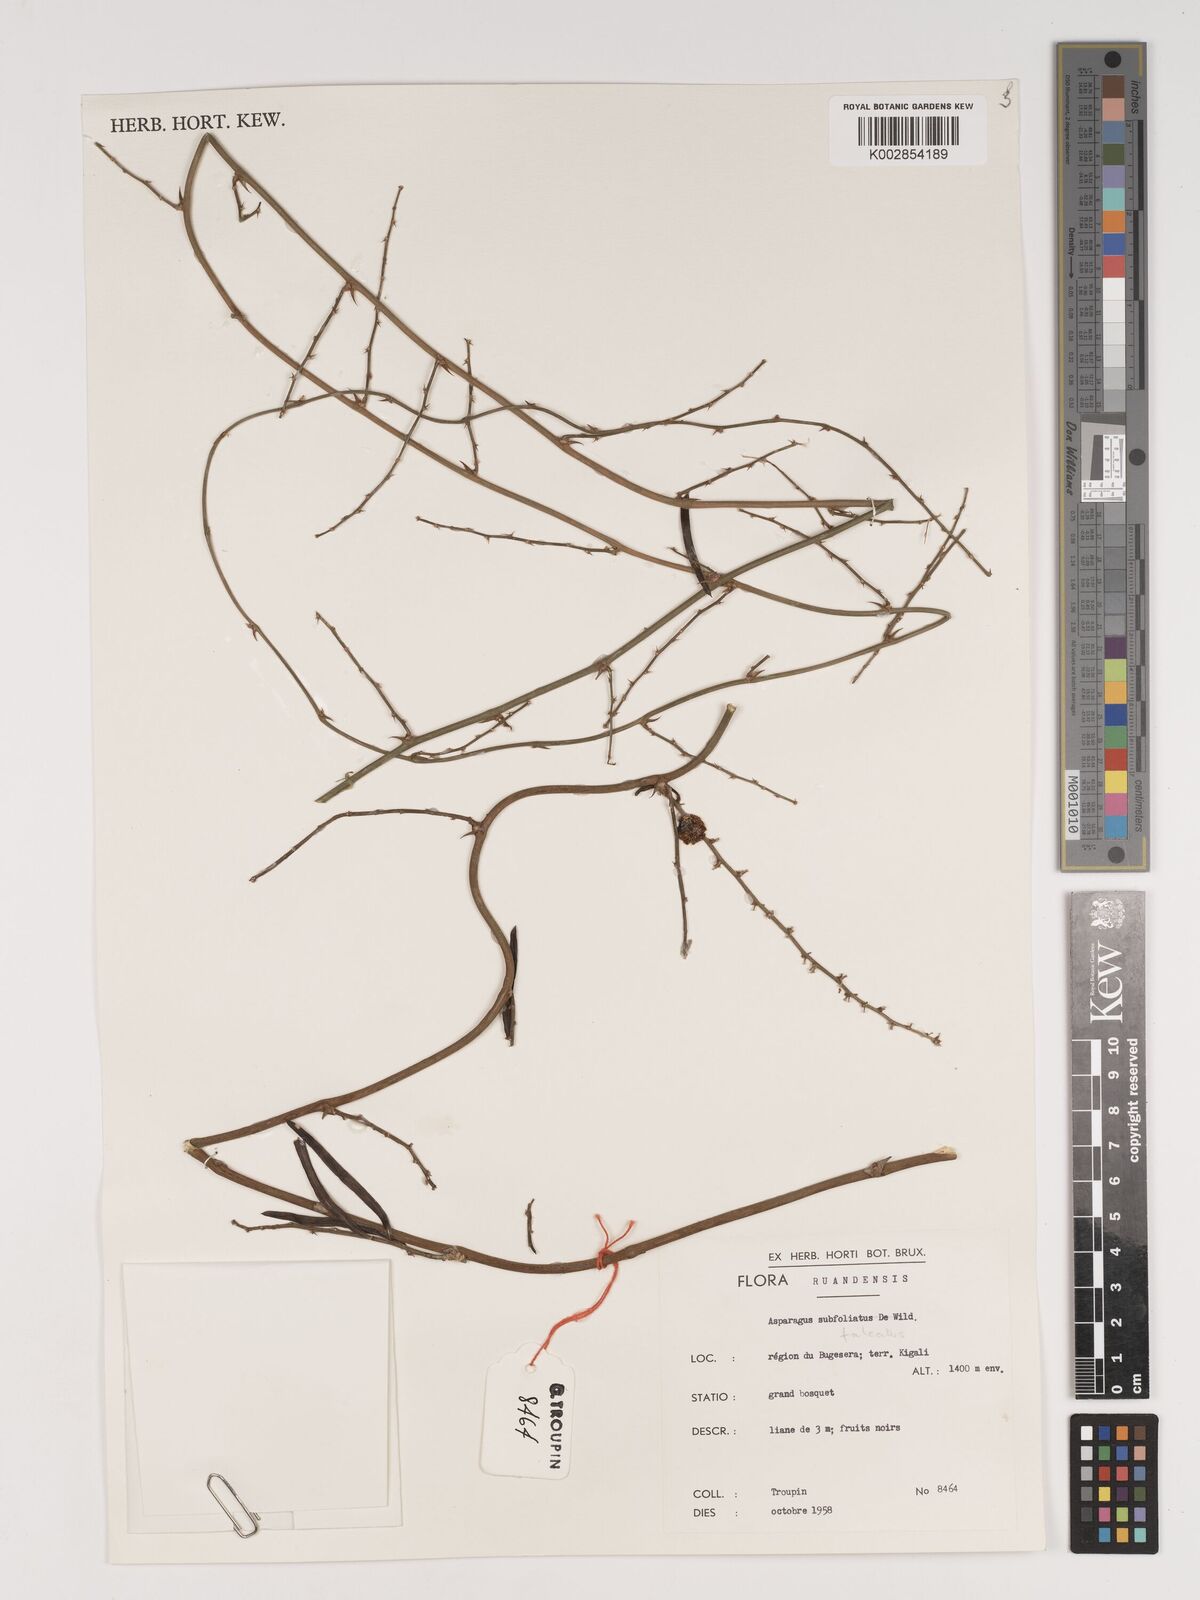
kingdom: Plantae
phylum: Tracheophyta
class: Liliopsida
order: Asparagales
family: Asparagaceae
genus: Asparagus
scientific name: Asparagus falcatus
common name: Asparagus
